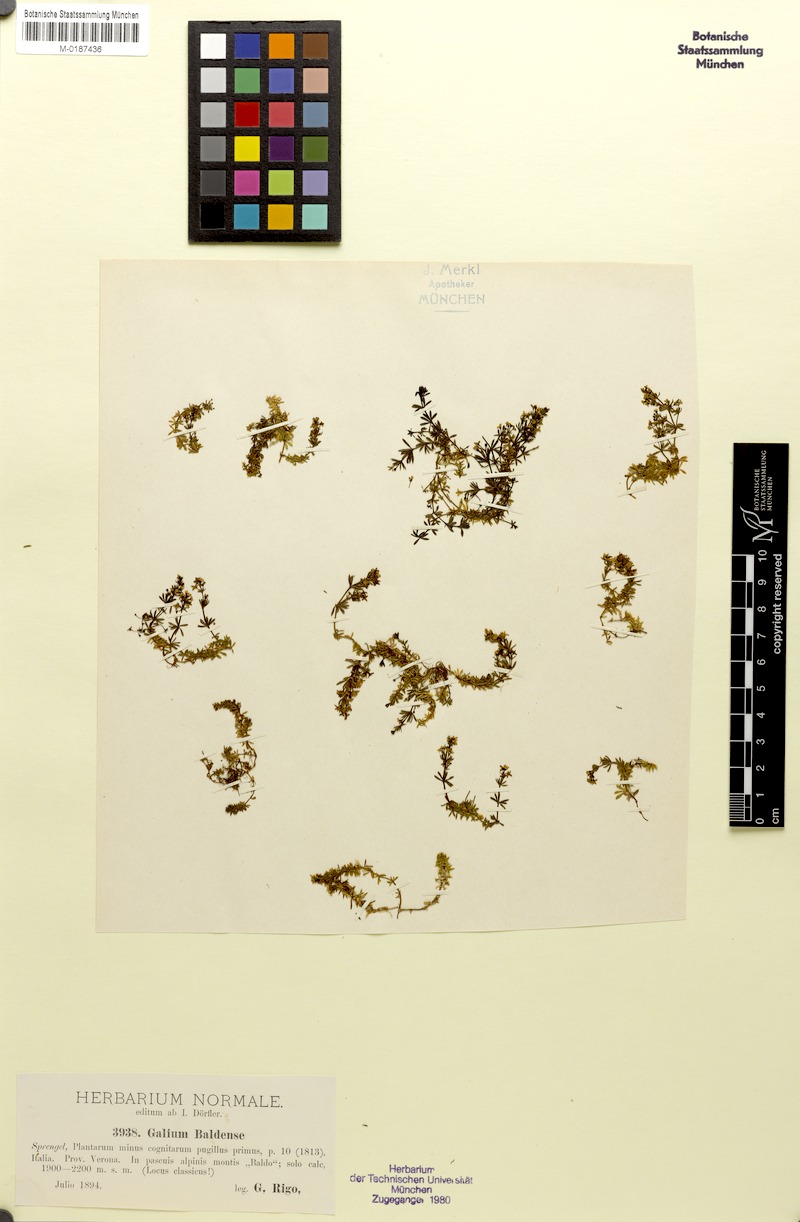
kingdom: Plantae
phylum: Tracheophyta
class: Magnoliopsida
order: Gentianales
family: Rubiaceae
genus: Galium
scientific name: Galium baldense
